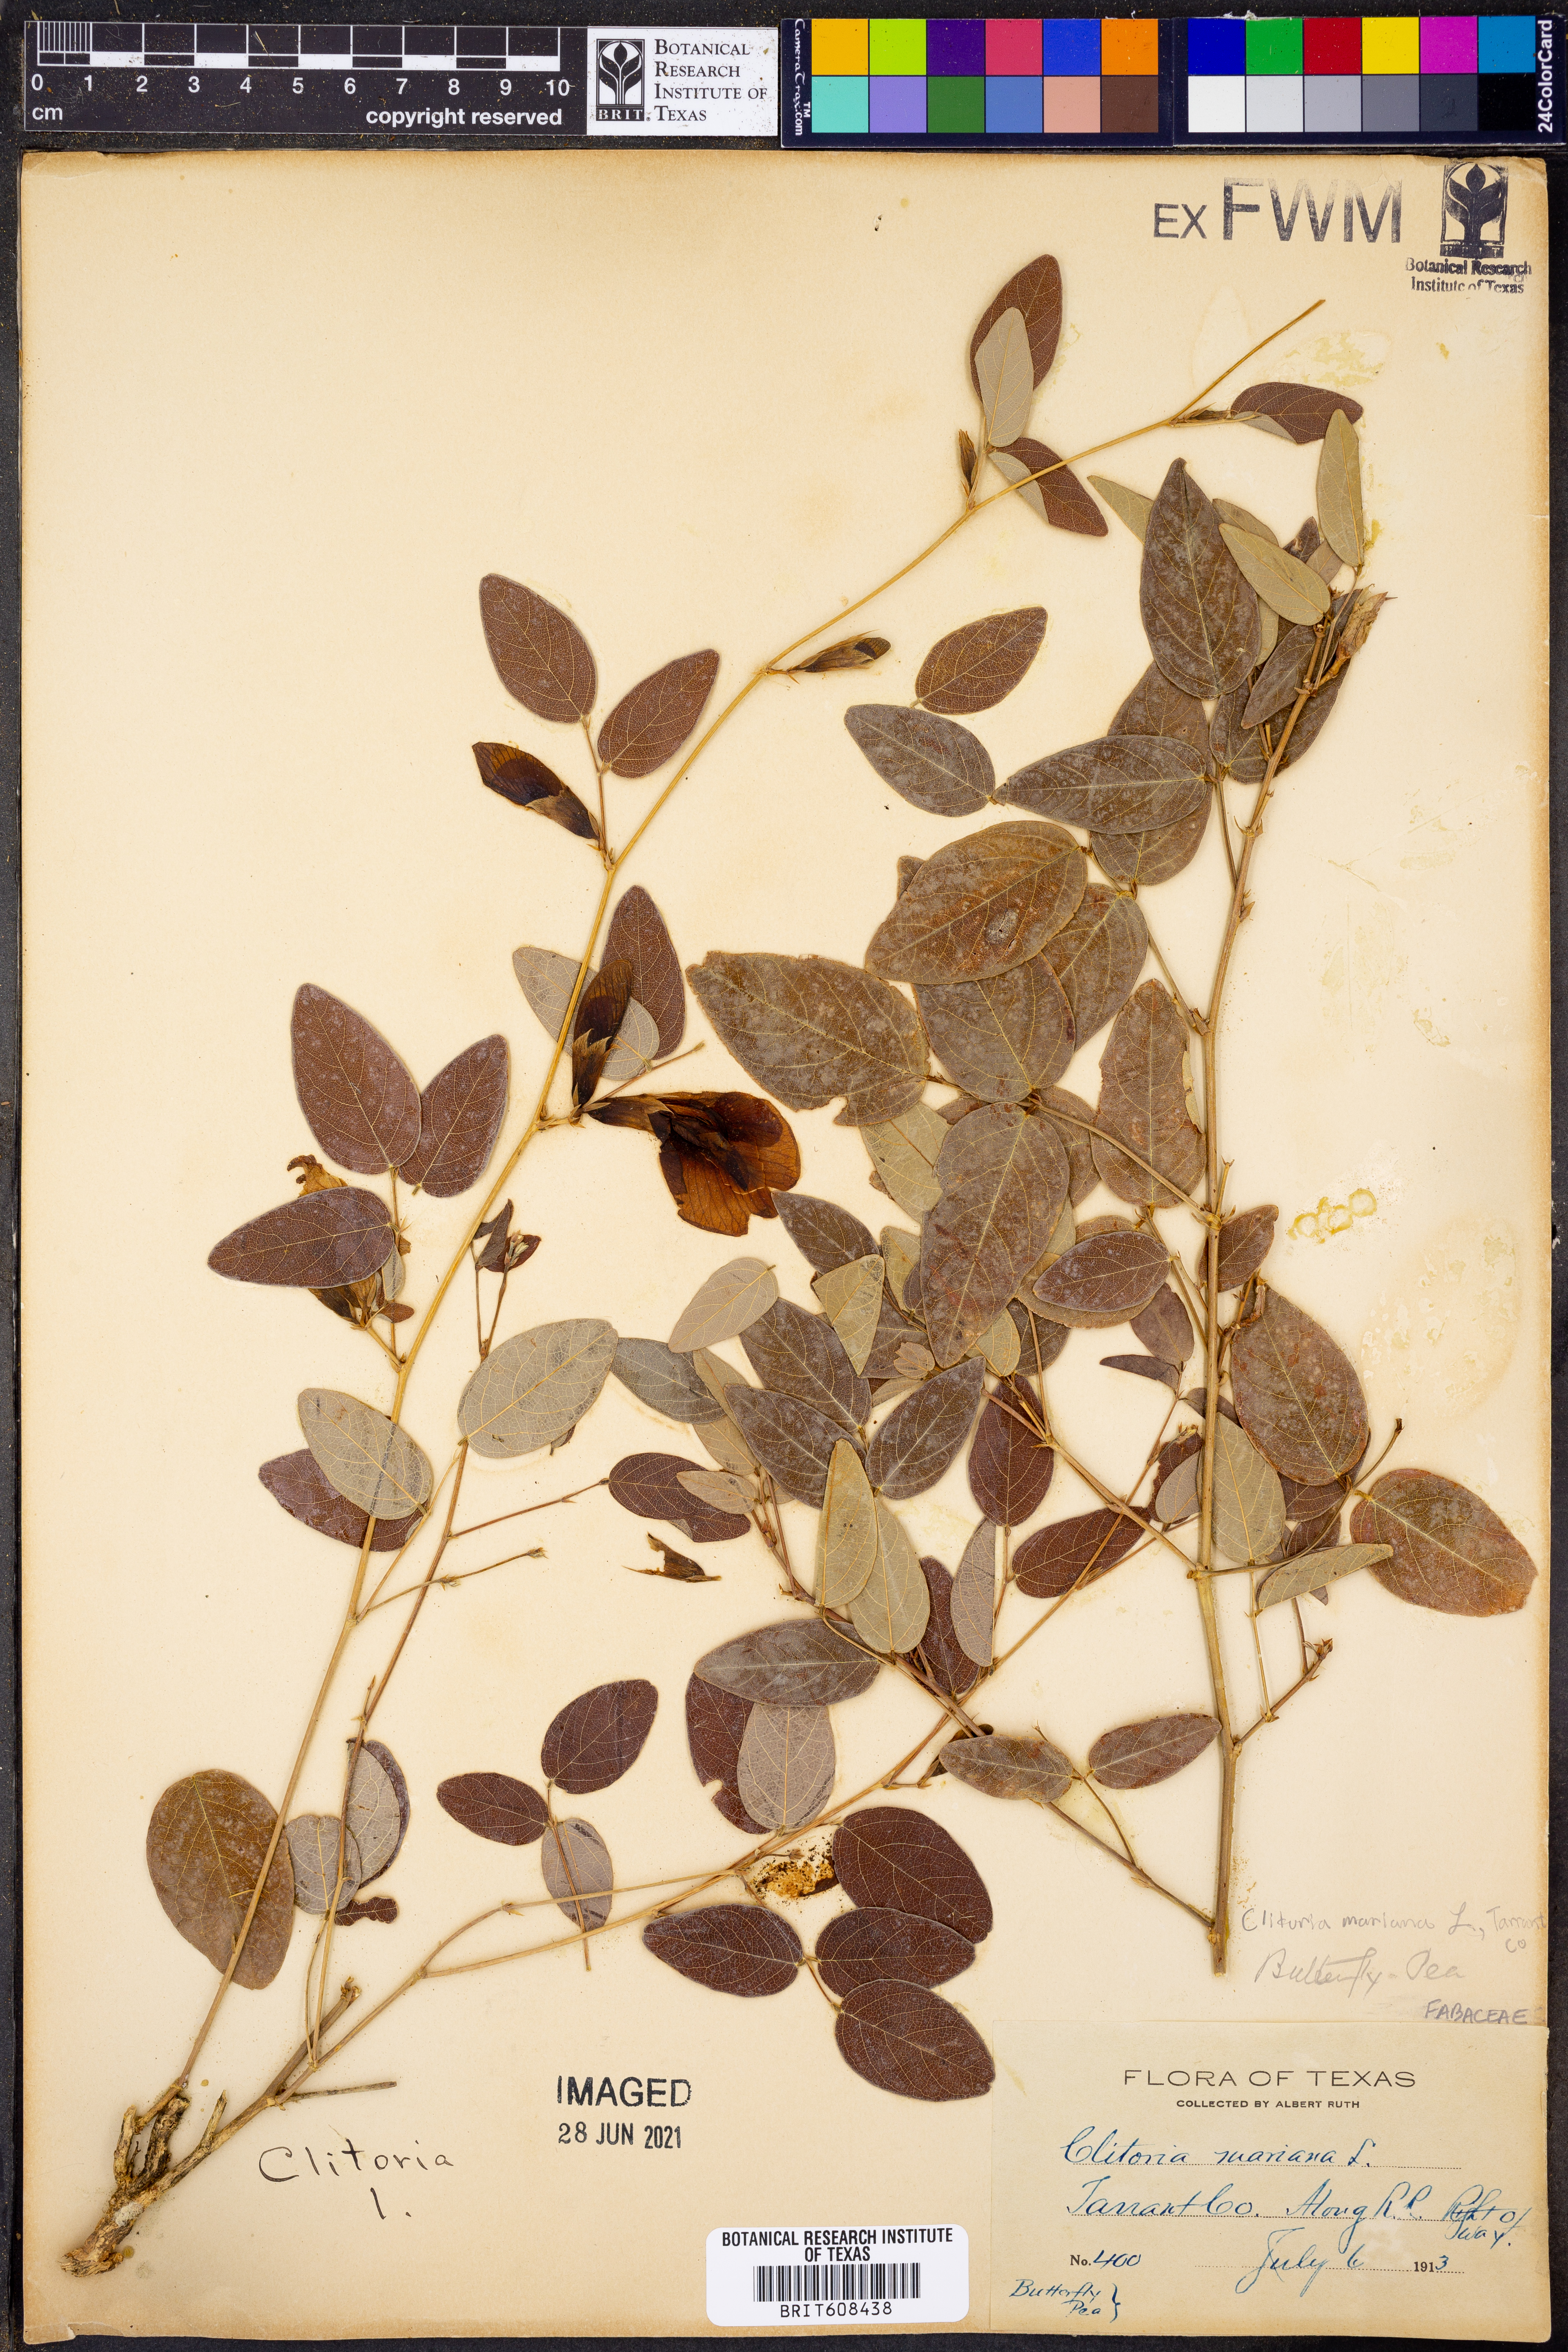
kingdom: Plantae
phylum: Tracheophyta
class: Magnoliopsida
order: Fabales
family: Fabaceae
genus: Clitoria
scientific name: Clitoria mariana
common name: Butterfly-pea
